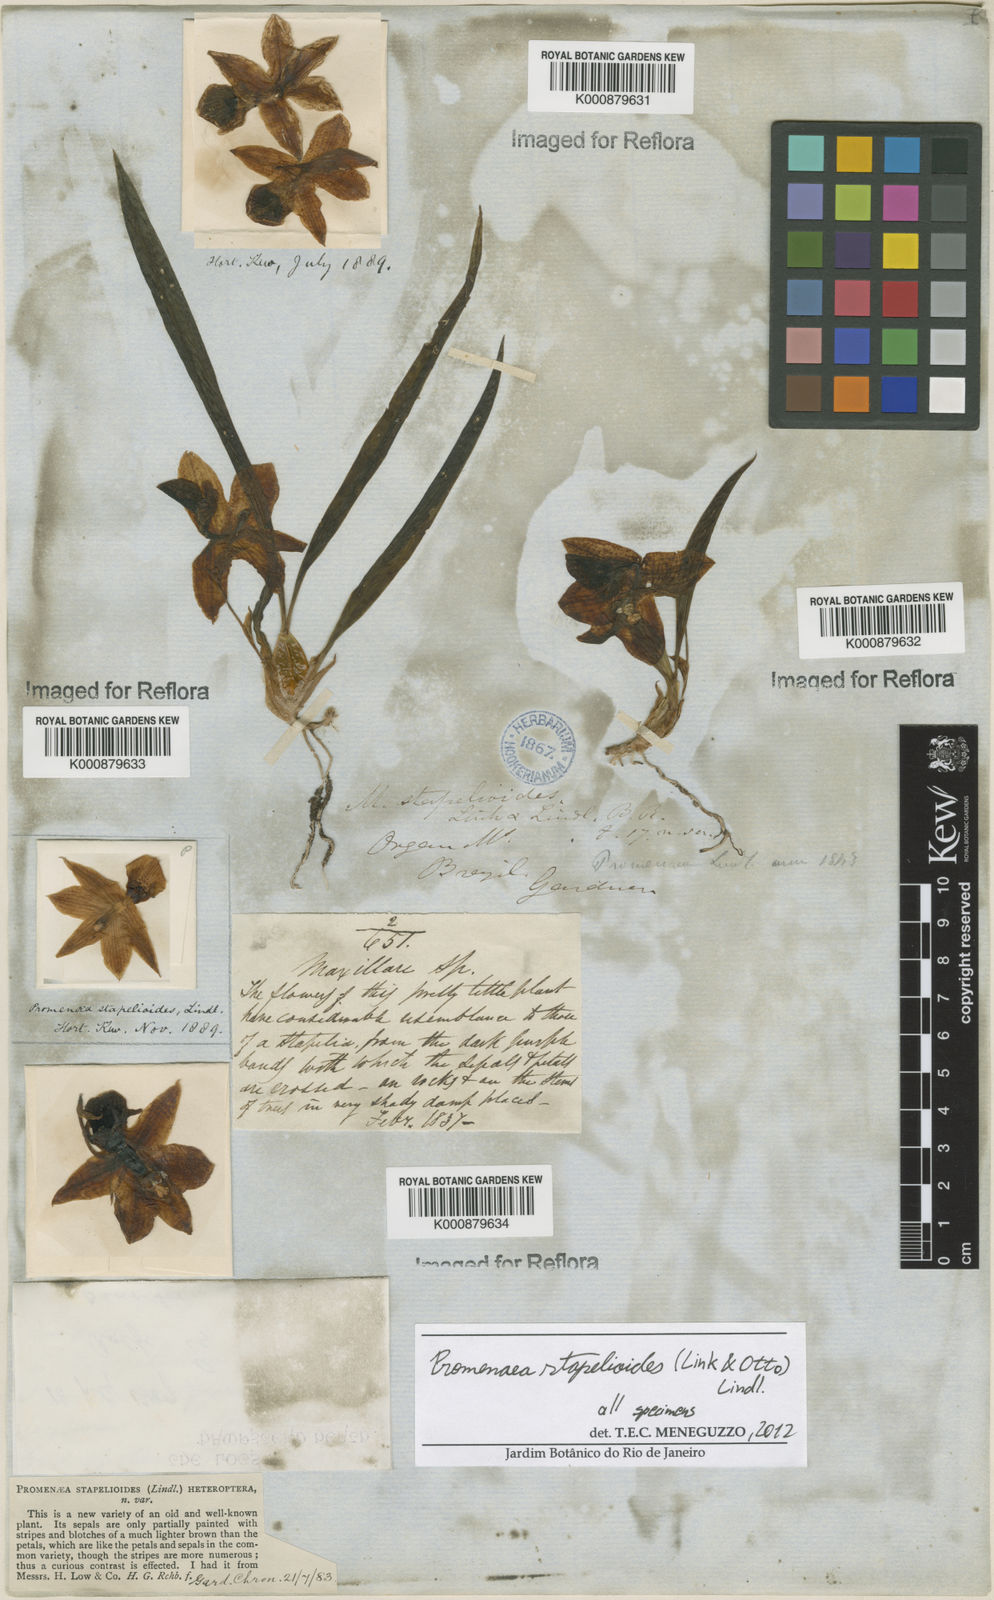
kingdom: Plantae
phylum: Tracheophyta
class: Liliopsida
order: Asparagales
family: Orchidaceae
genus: Promenaea
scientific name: Promenaea stapelioides
